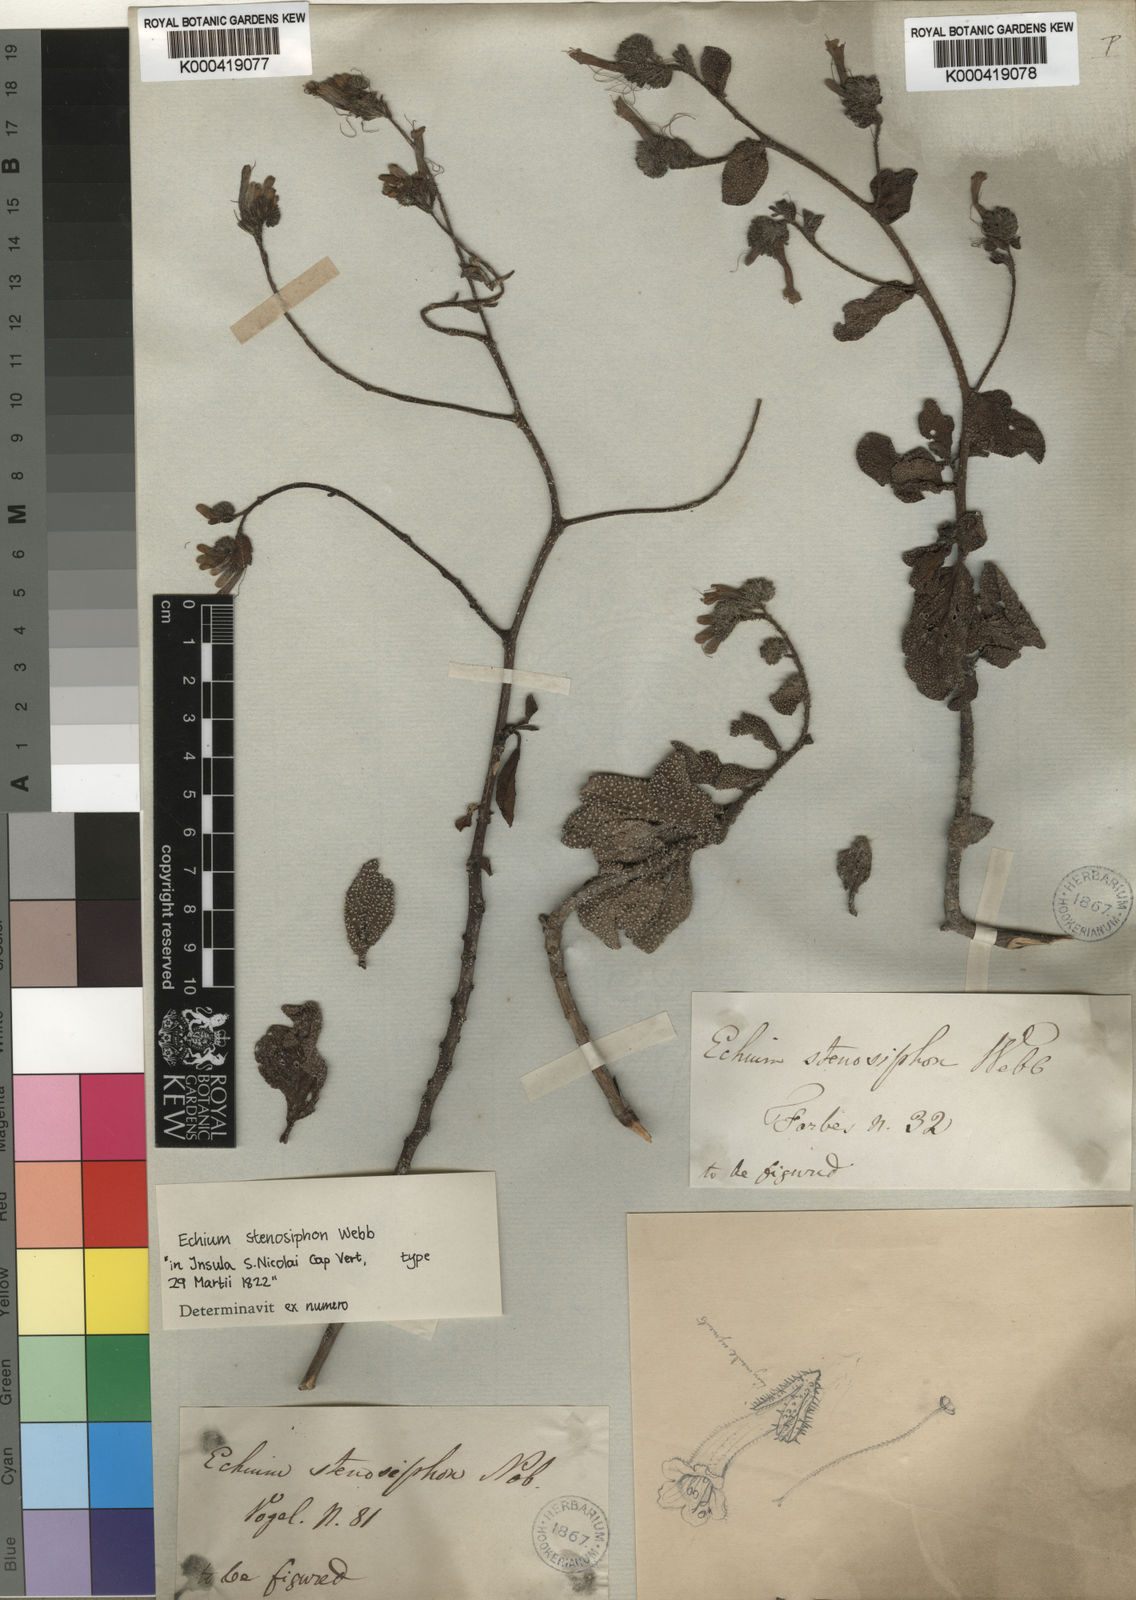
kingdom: Plantae
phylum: Tracheophyta
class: Magnoliopsida
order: Boraginales
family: Boraginaceae
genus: Echium
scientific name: Echium stenosiphon
